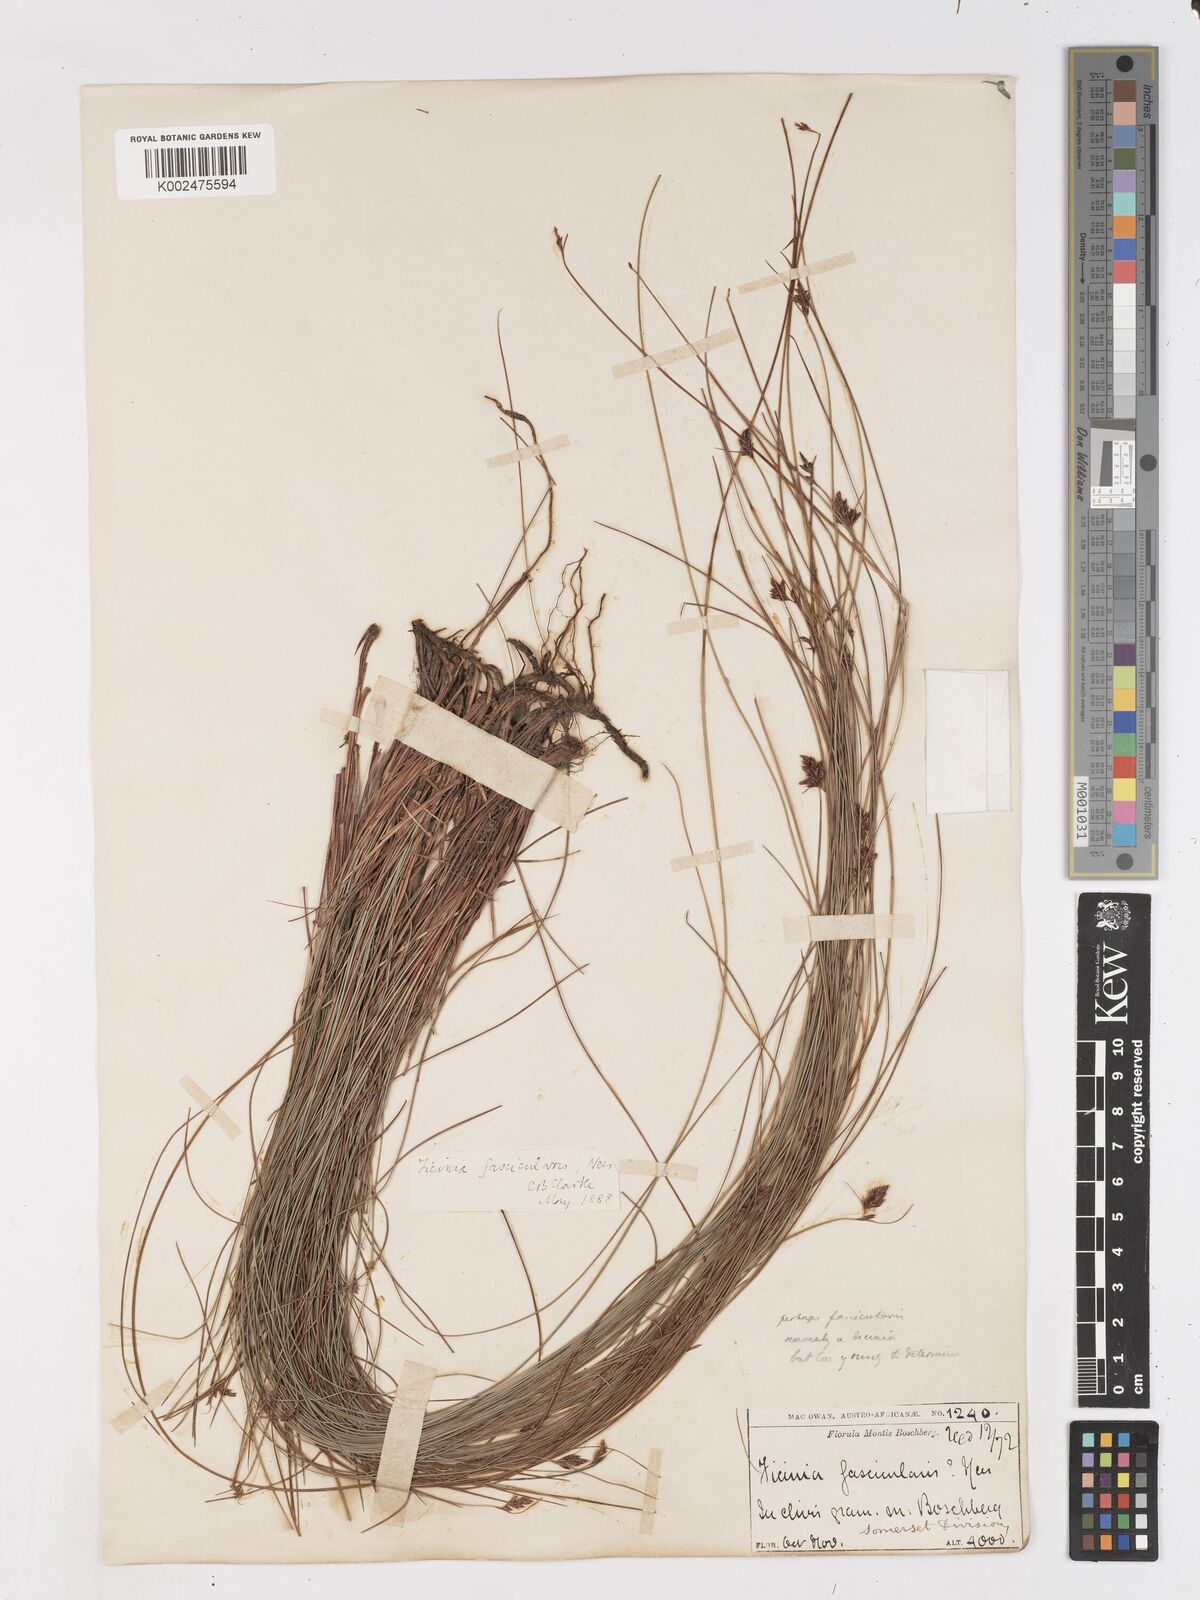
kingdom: Plantae
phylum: Tracheophyta
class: Liliopsida
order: Poales
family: Cyperaceae
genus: Ficinia
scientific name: Ficinia fascicularis
